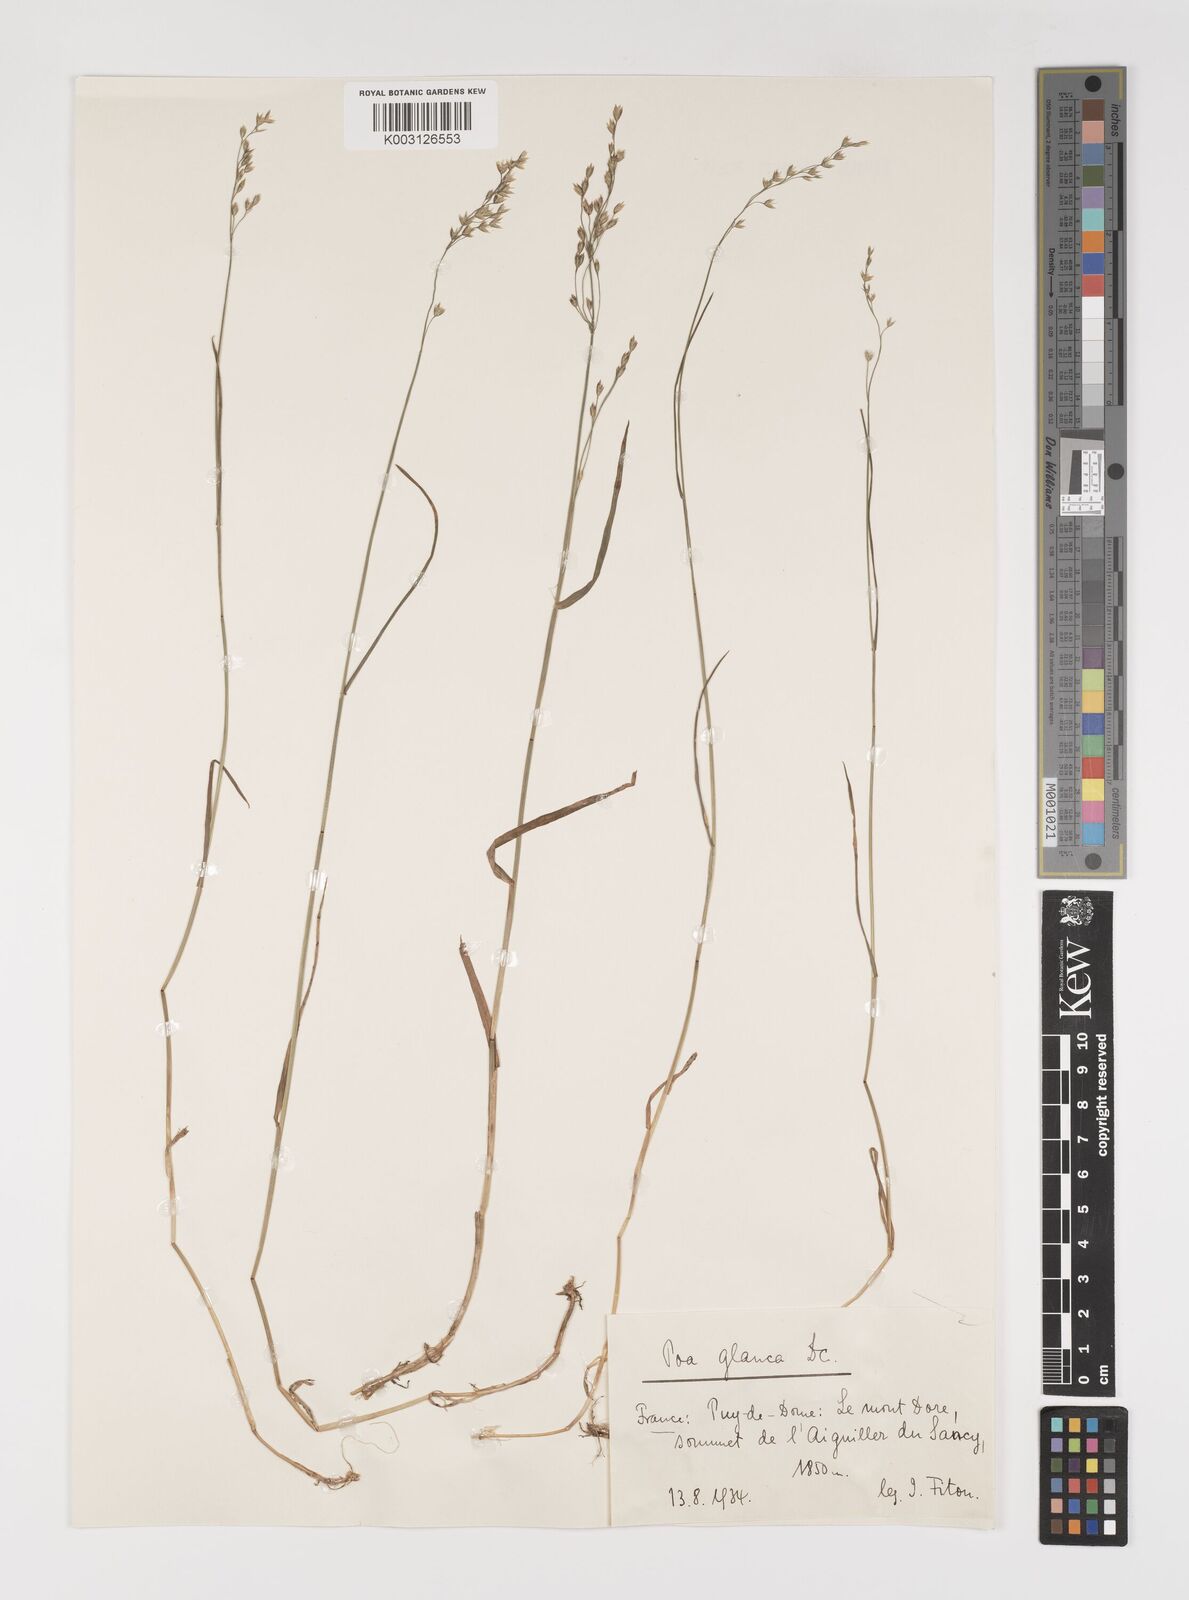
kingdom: Plantae
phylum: Tracheophyta
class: Liliopsida
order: Poales
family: Poaceae
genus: Poa
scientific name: Poa nemoralis
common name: Wood bluegrass
